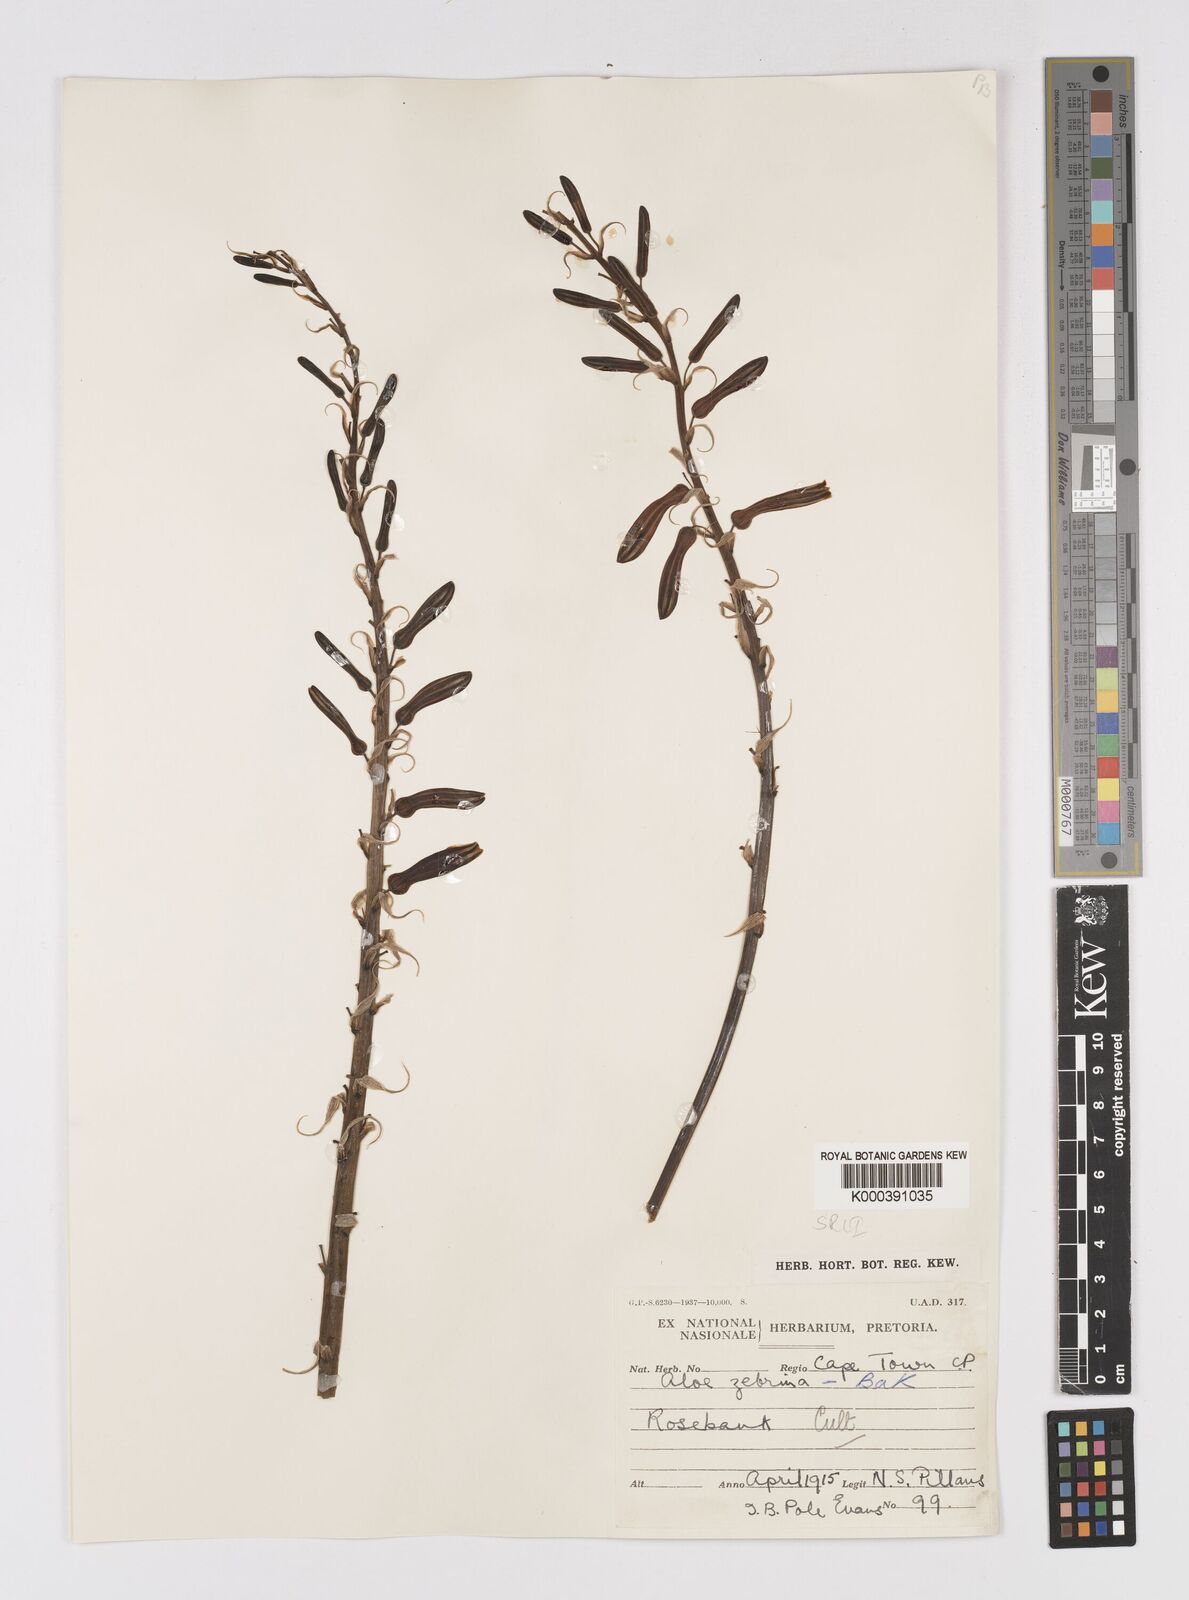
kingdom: Plantae
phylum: Tracheophyta
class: Liliopsida
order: Asparagales
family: Asphodelaceae
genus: Aloe
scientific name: Aloe zebrina
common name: Zebra-leaf aloe
